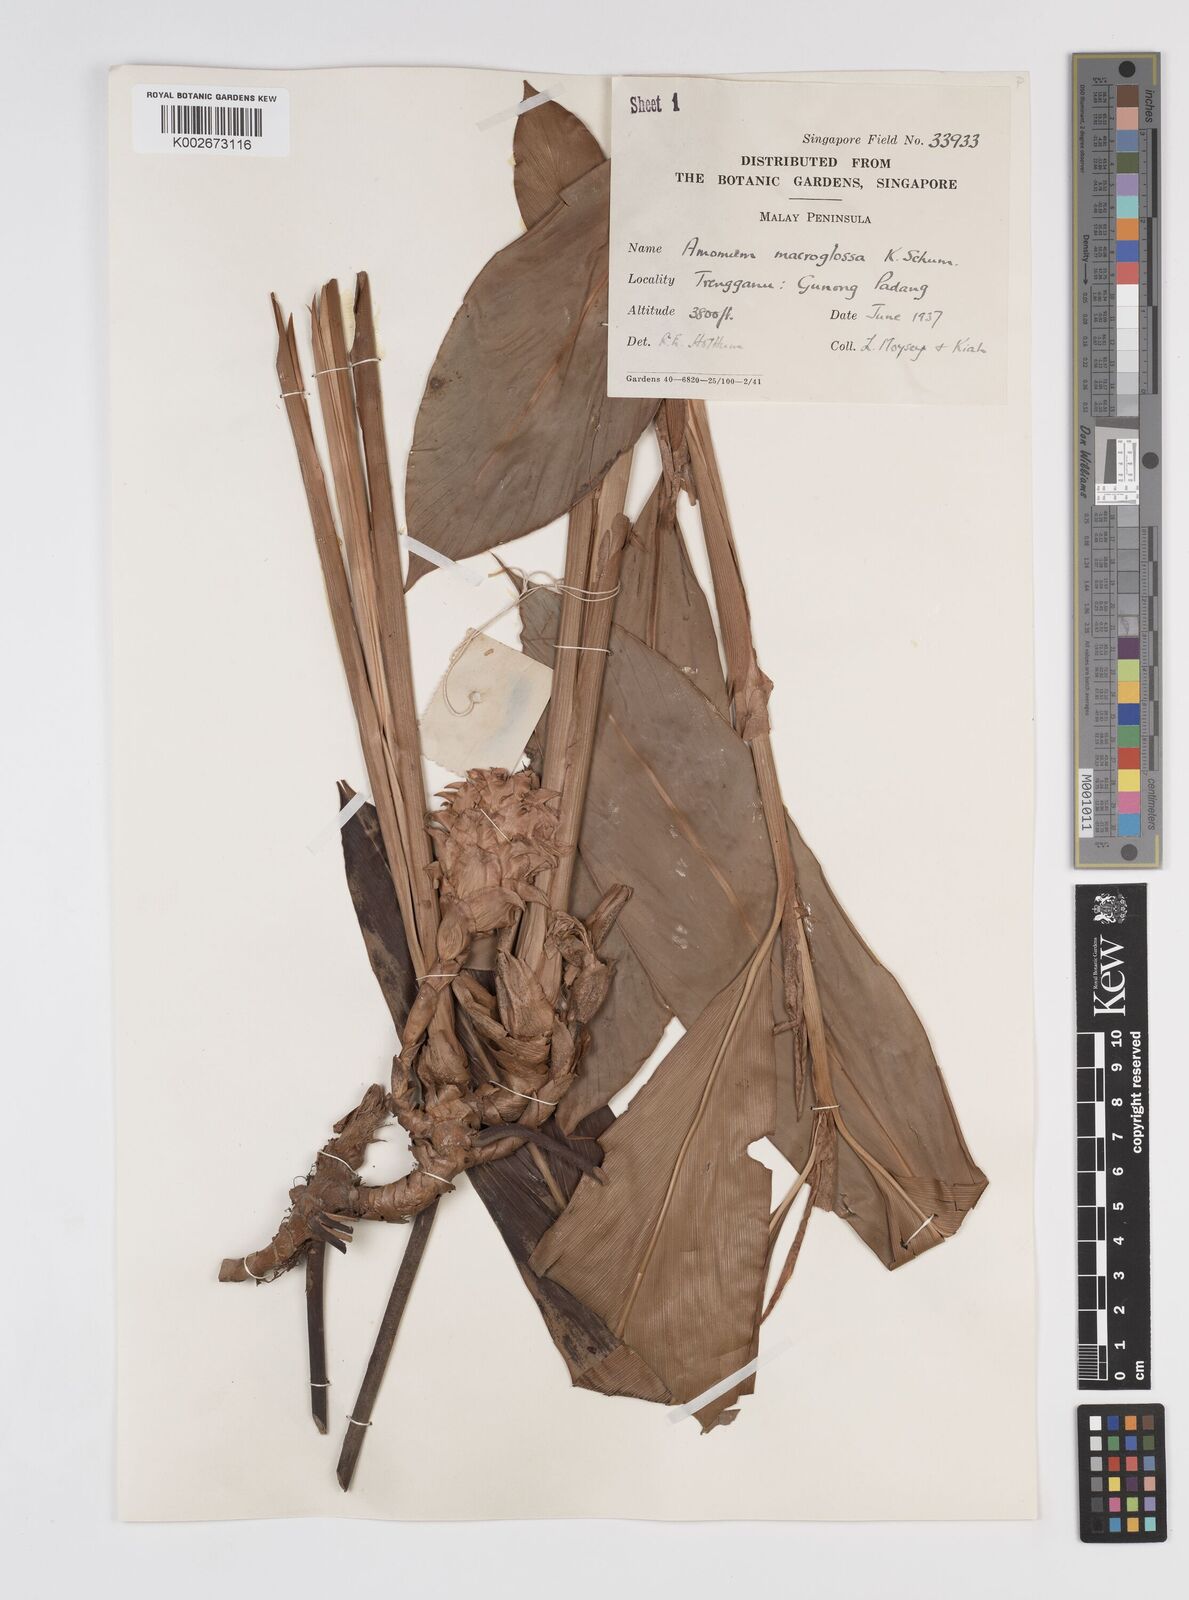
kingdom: Plantae
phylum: Tracheophyta
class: Liliopsida
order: Zingiberales
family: Zingiberaceae
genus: Sundamomum
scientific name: Sundamomum macroglossa
